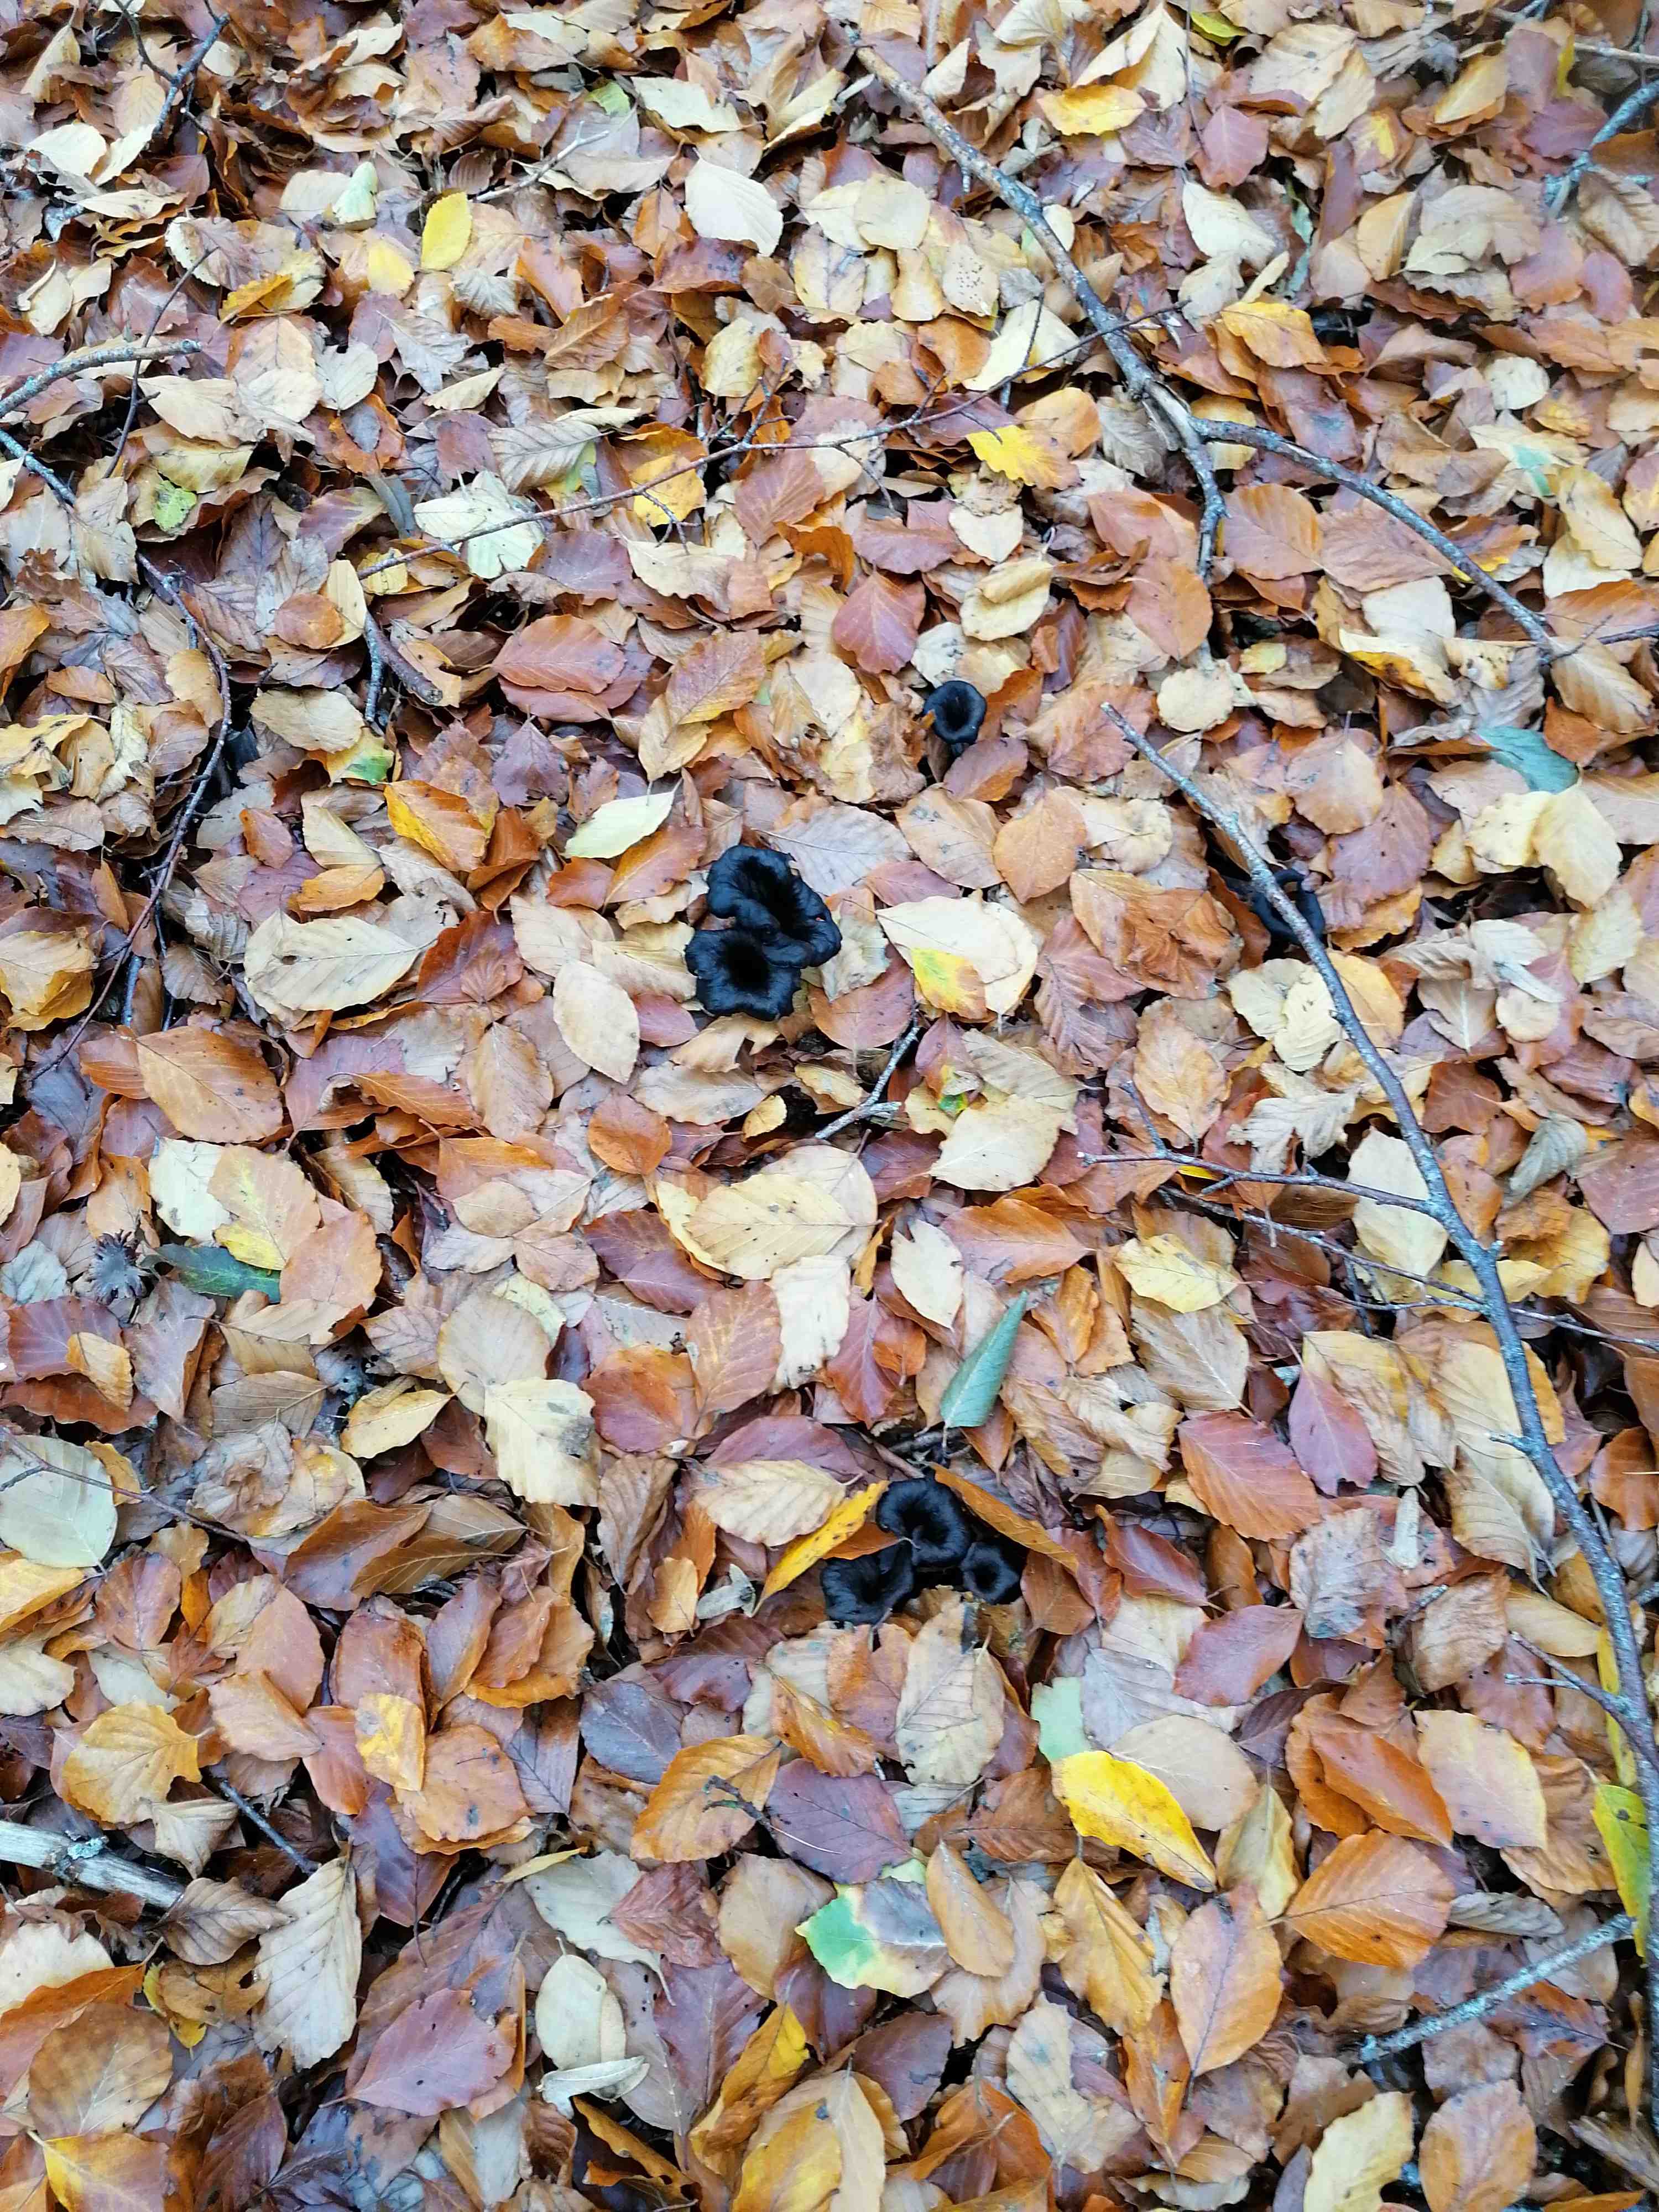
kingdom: Fungi
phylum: Basidiomycota
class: Agaricomycetes
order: Cantharellales
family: Hydnaceae
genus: Craterellus
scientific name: Craterellus cornucopioides
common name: trompetsvamp
